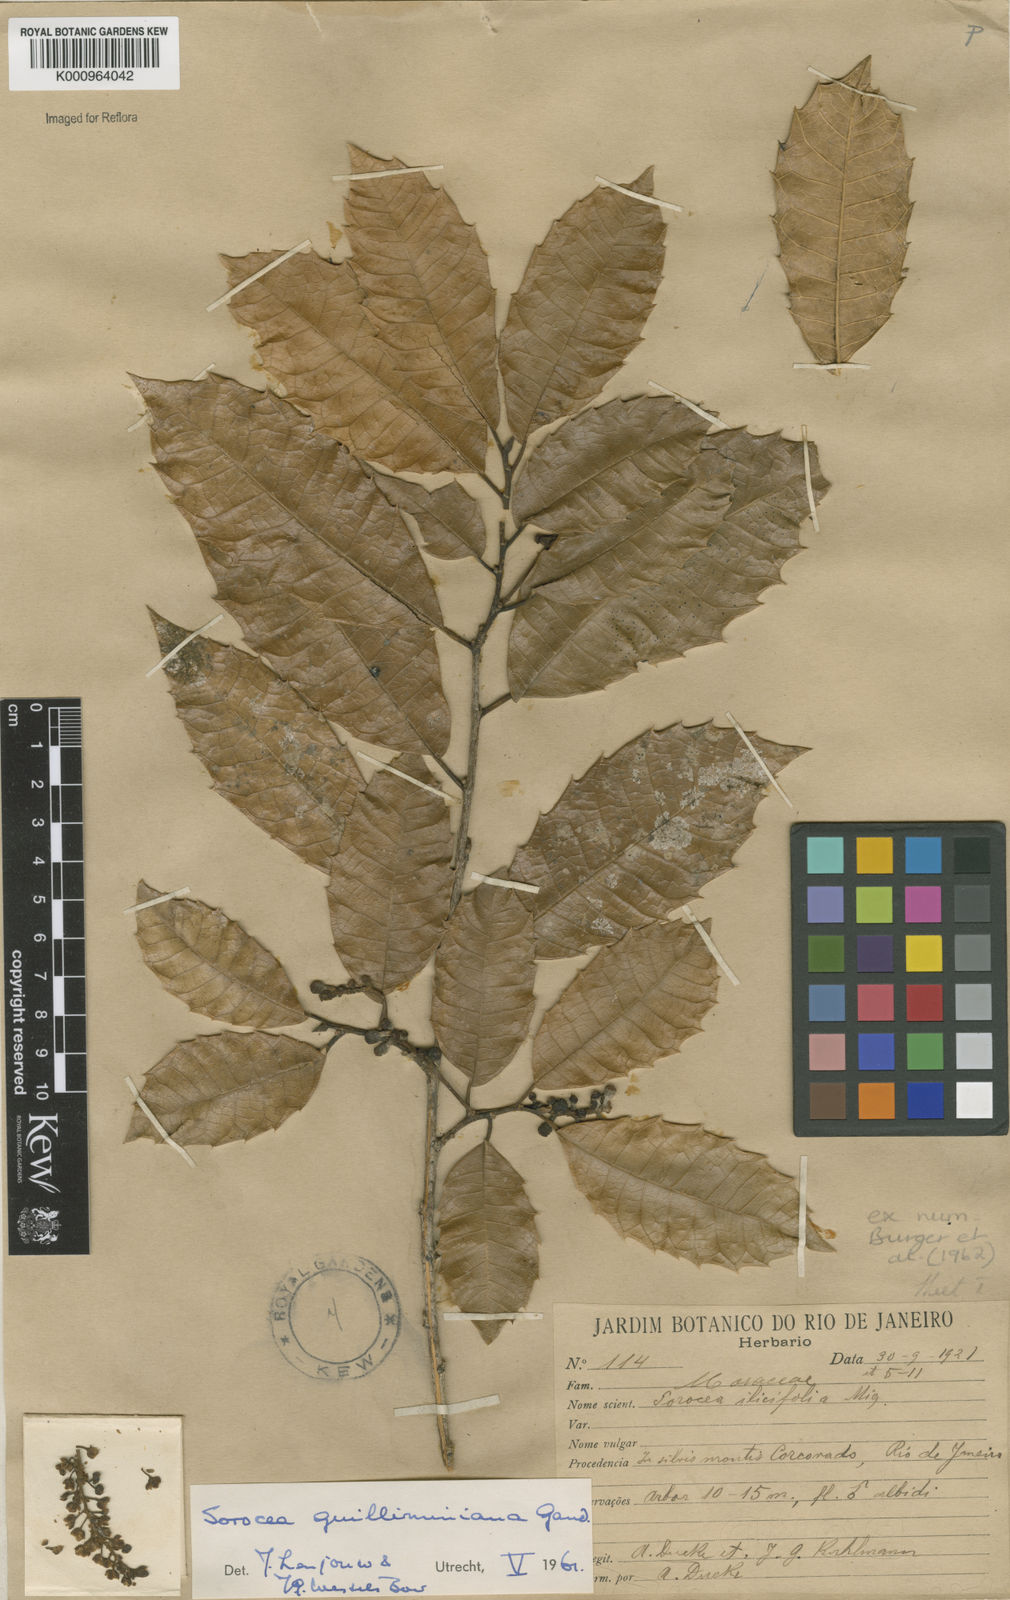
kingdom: Plantae
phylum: Tracheophyta
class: Magnoliopsida
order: Rosales
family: Moraceae
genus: Sorocea
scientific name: Sorocea guilleminiana
